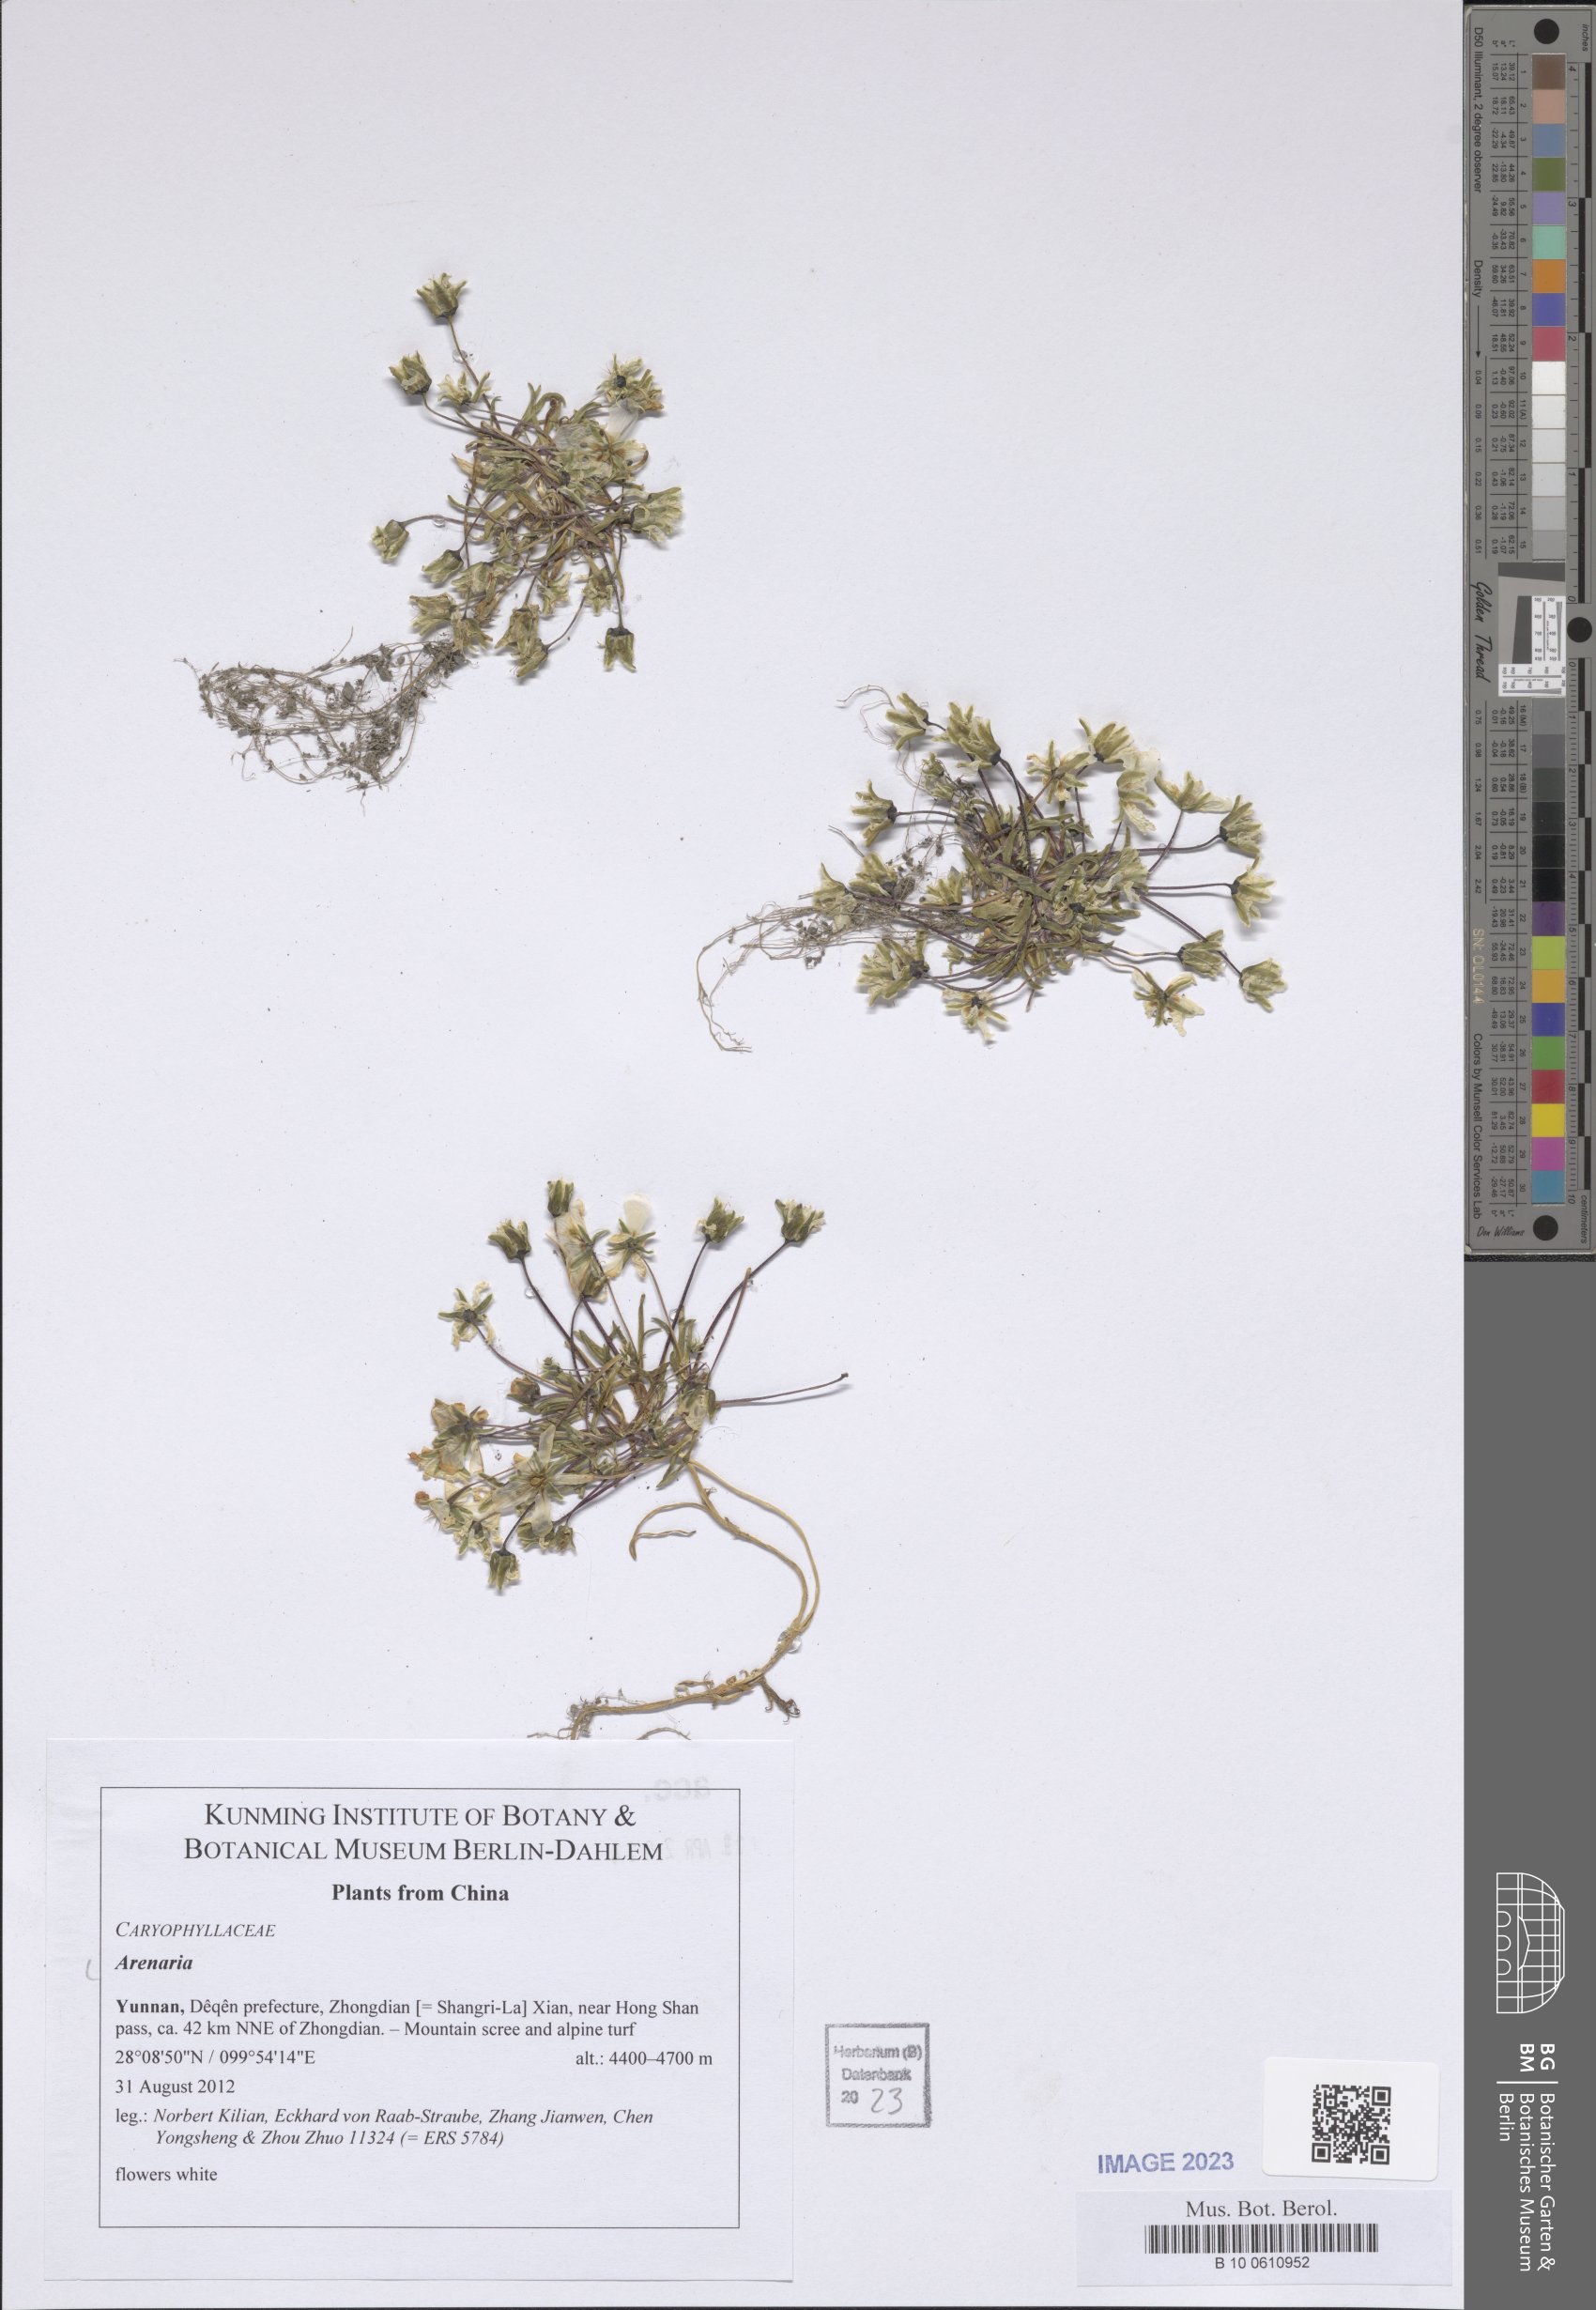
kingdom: Plantae
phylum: Tracheophyta
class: Magnoliopsida
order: Caryophyllales
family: Caryophyllaceae
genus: Arenaria
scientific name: Arenaria
